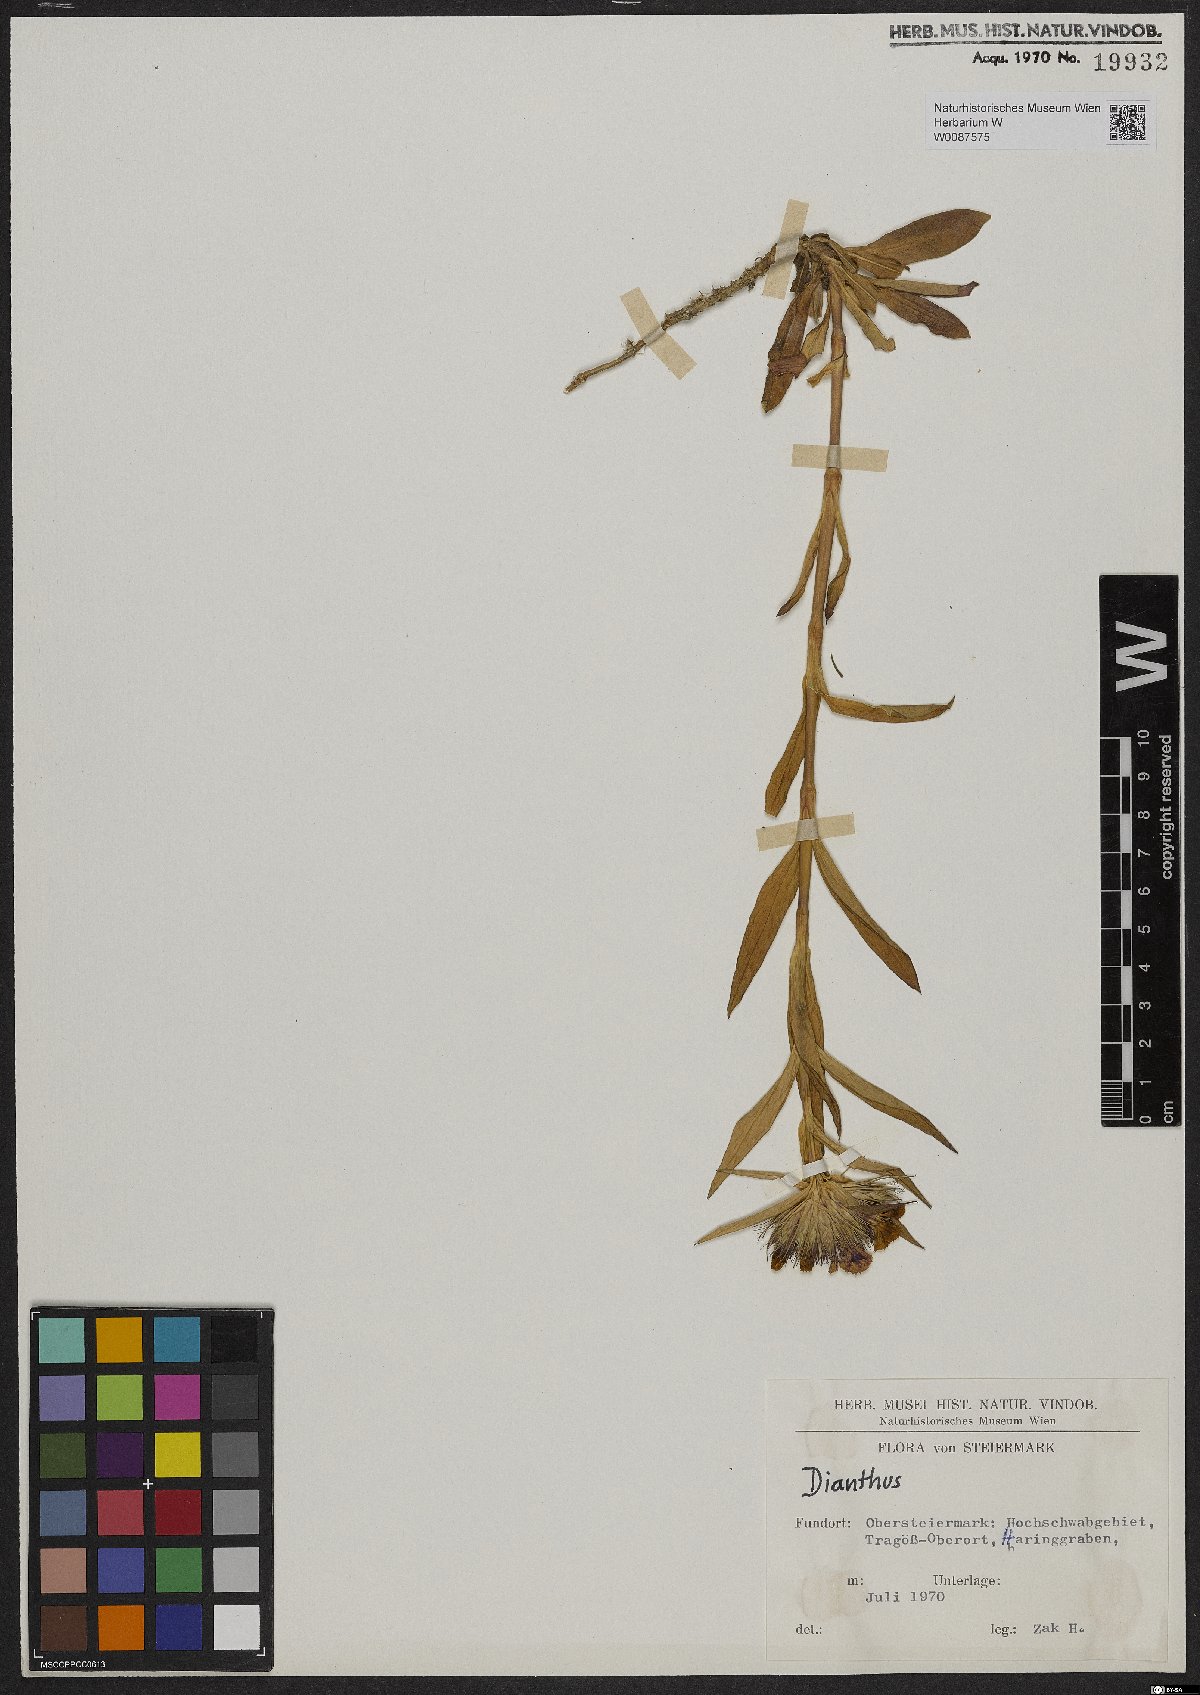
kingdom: Plantae
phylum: Tracheophyta
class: Magnoliopsida
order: Caryophyllales
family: Caryophyllaceae
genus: Dianthus
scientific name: Dianthus barbatus
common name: Sweet-william
